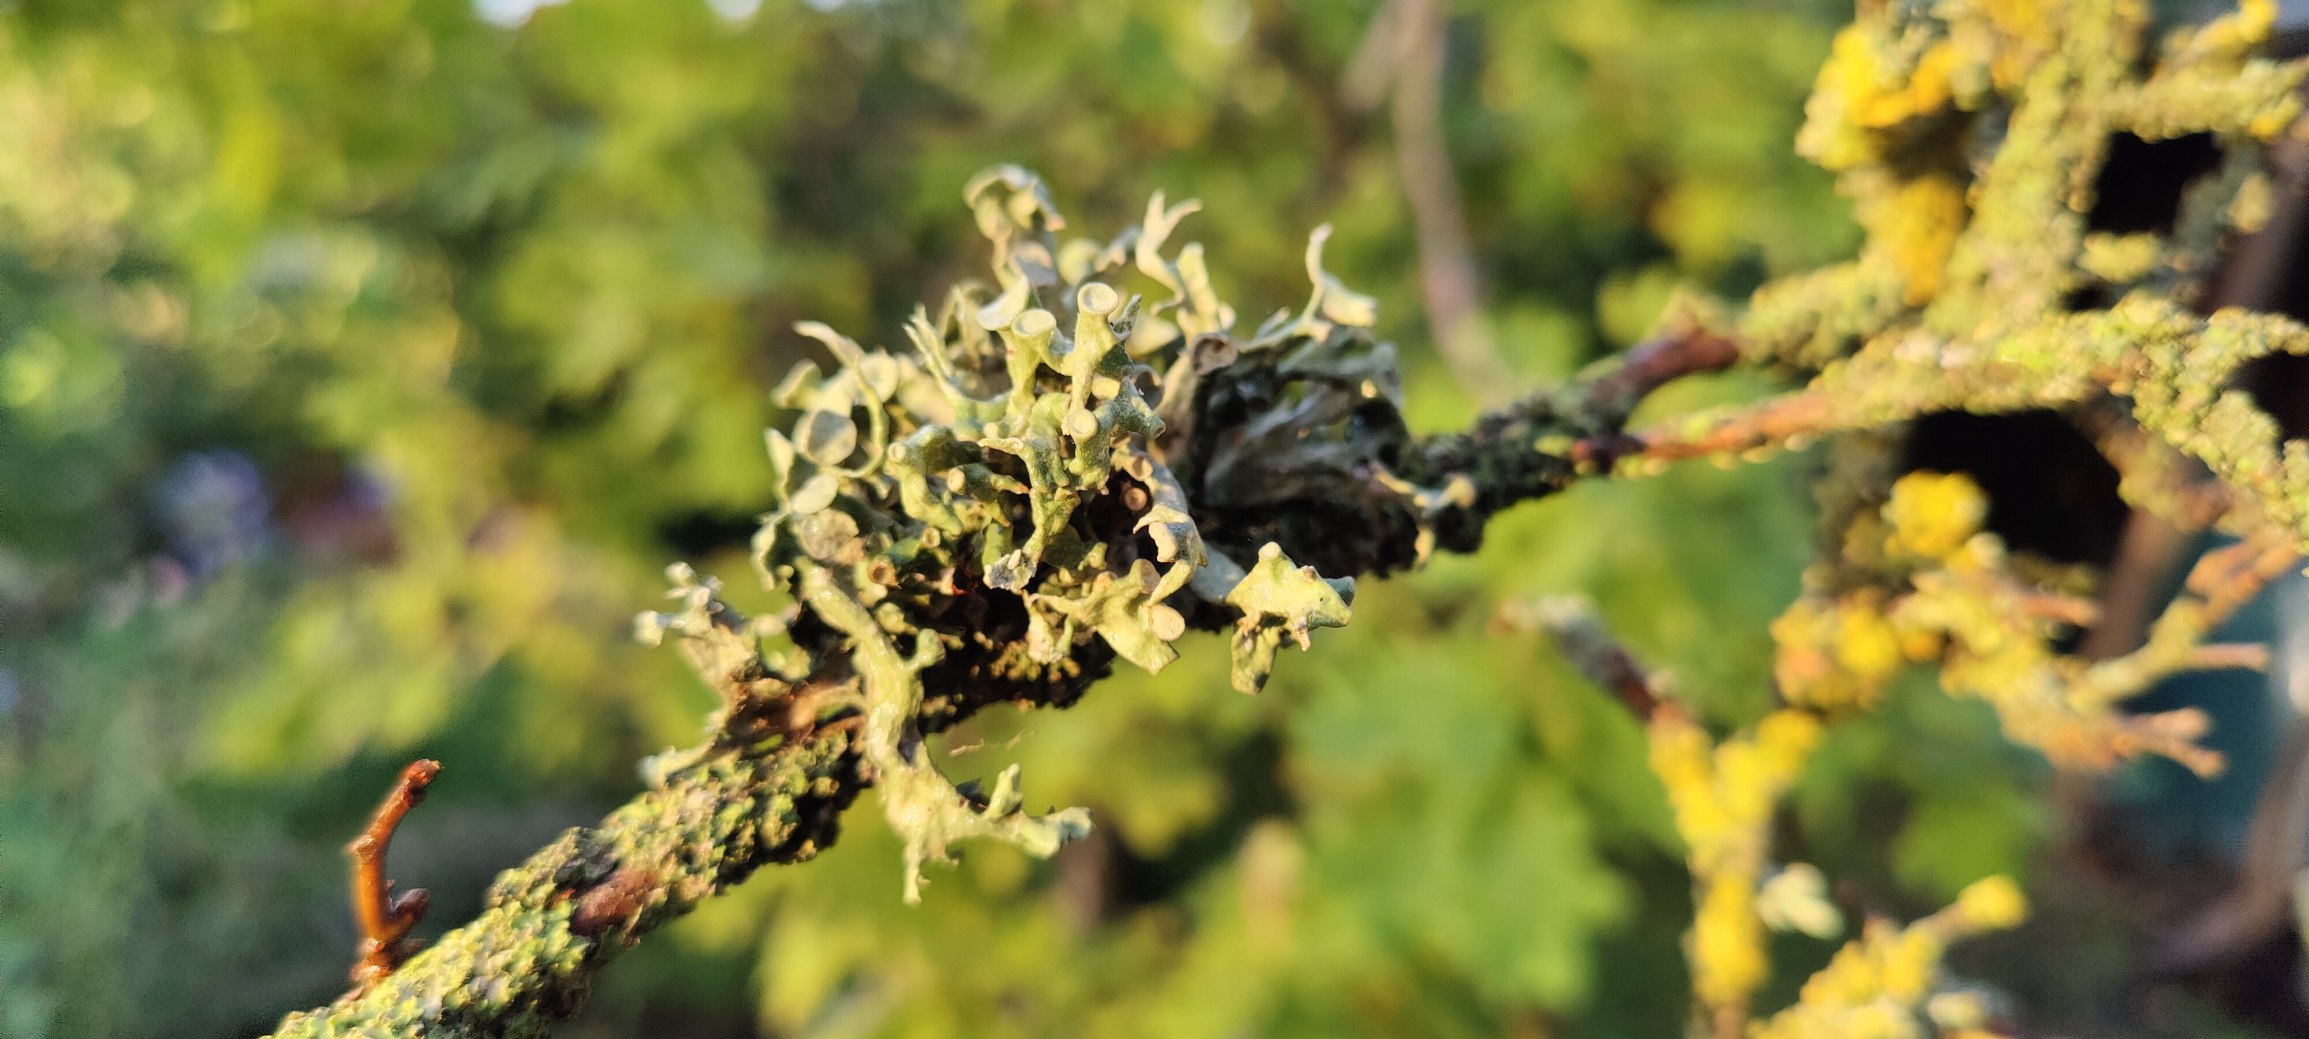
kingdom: Fungi
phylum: Ascomycota
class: Lecanoromycetes
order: Lecanorales
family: Ramalinaceae
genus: Ramalina
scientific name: Ramalina fastigiata
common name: Tue-grenlav
